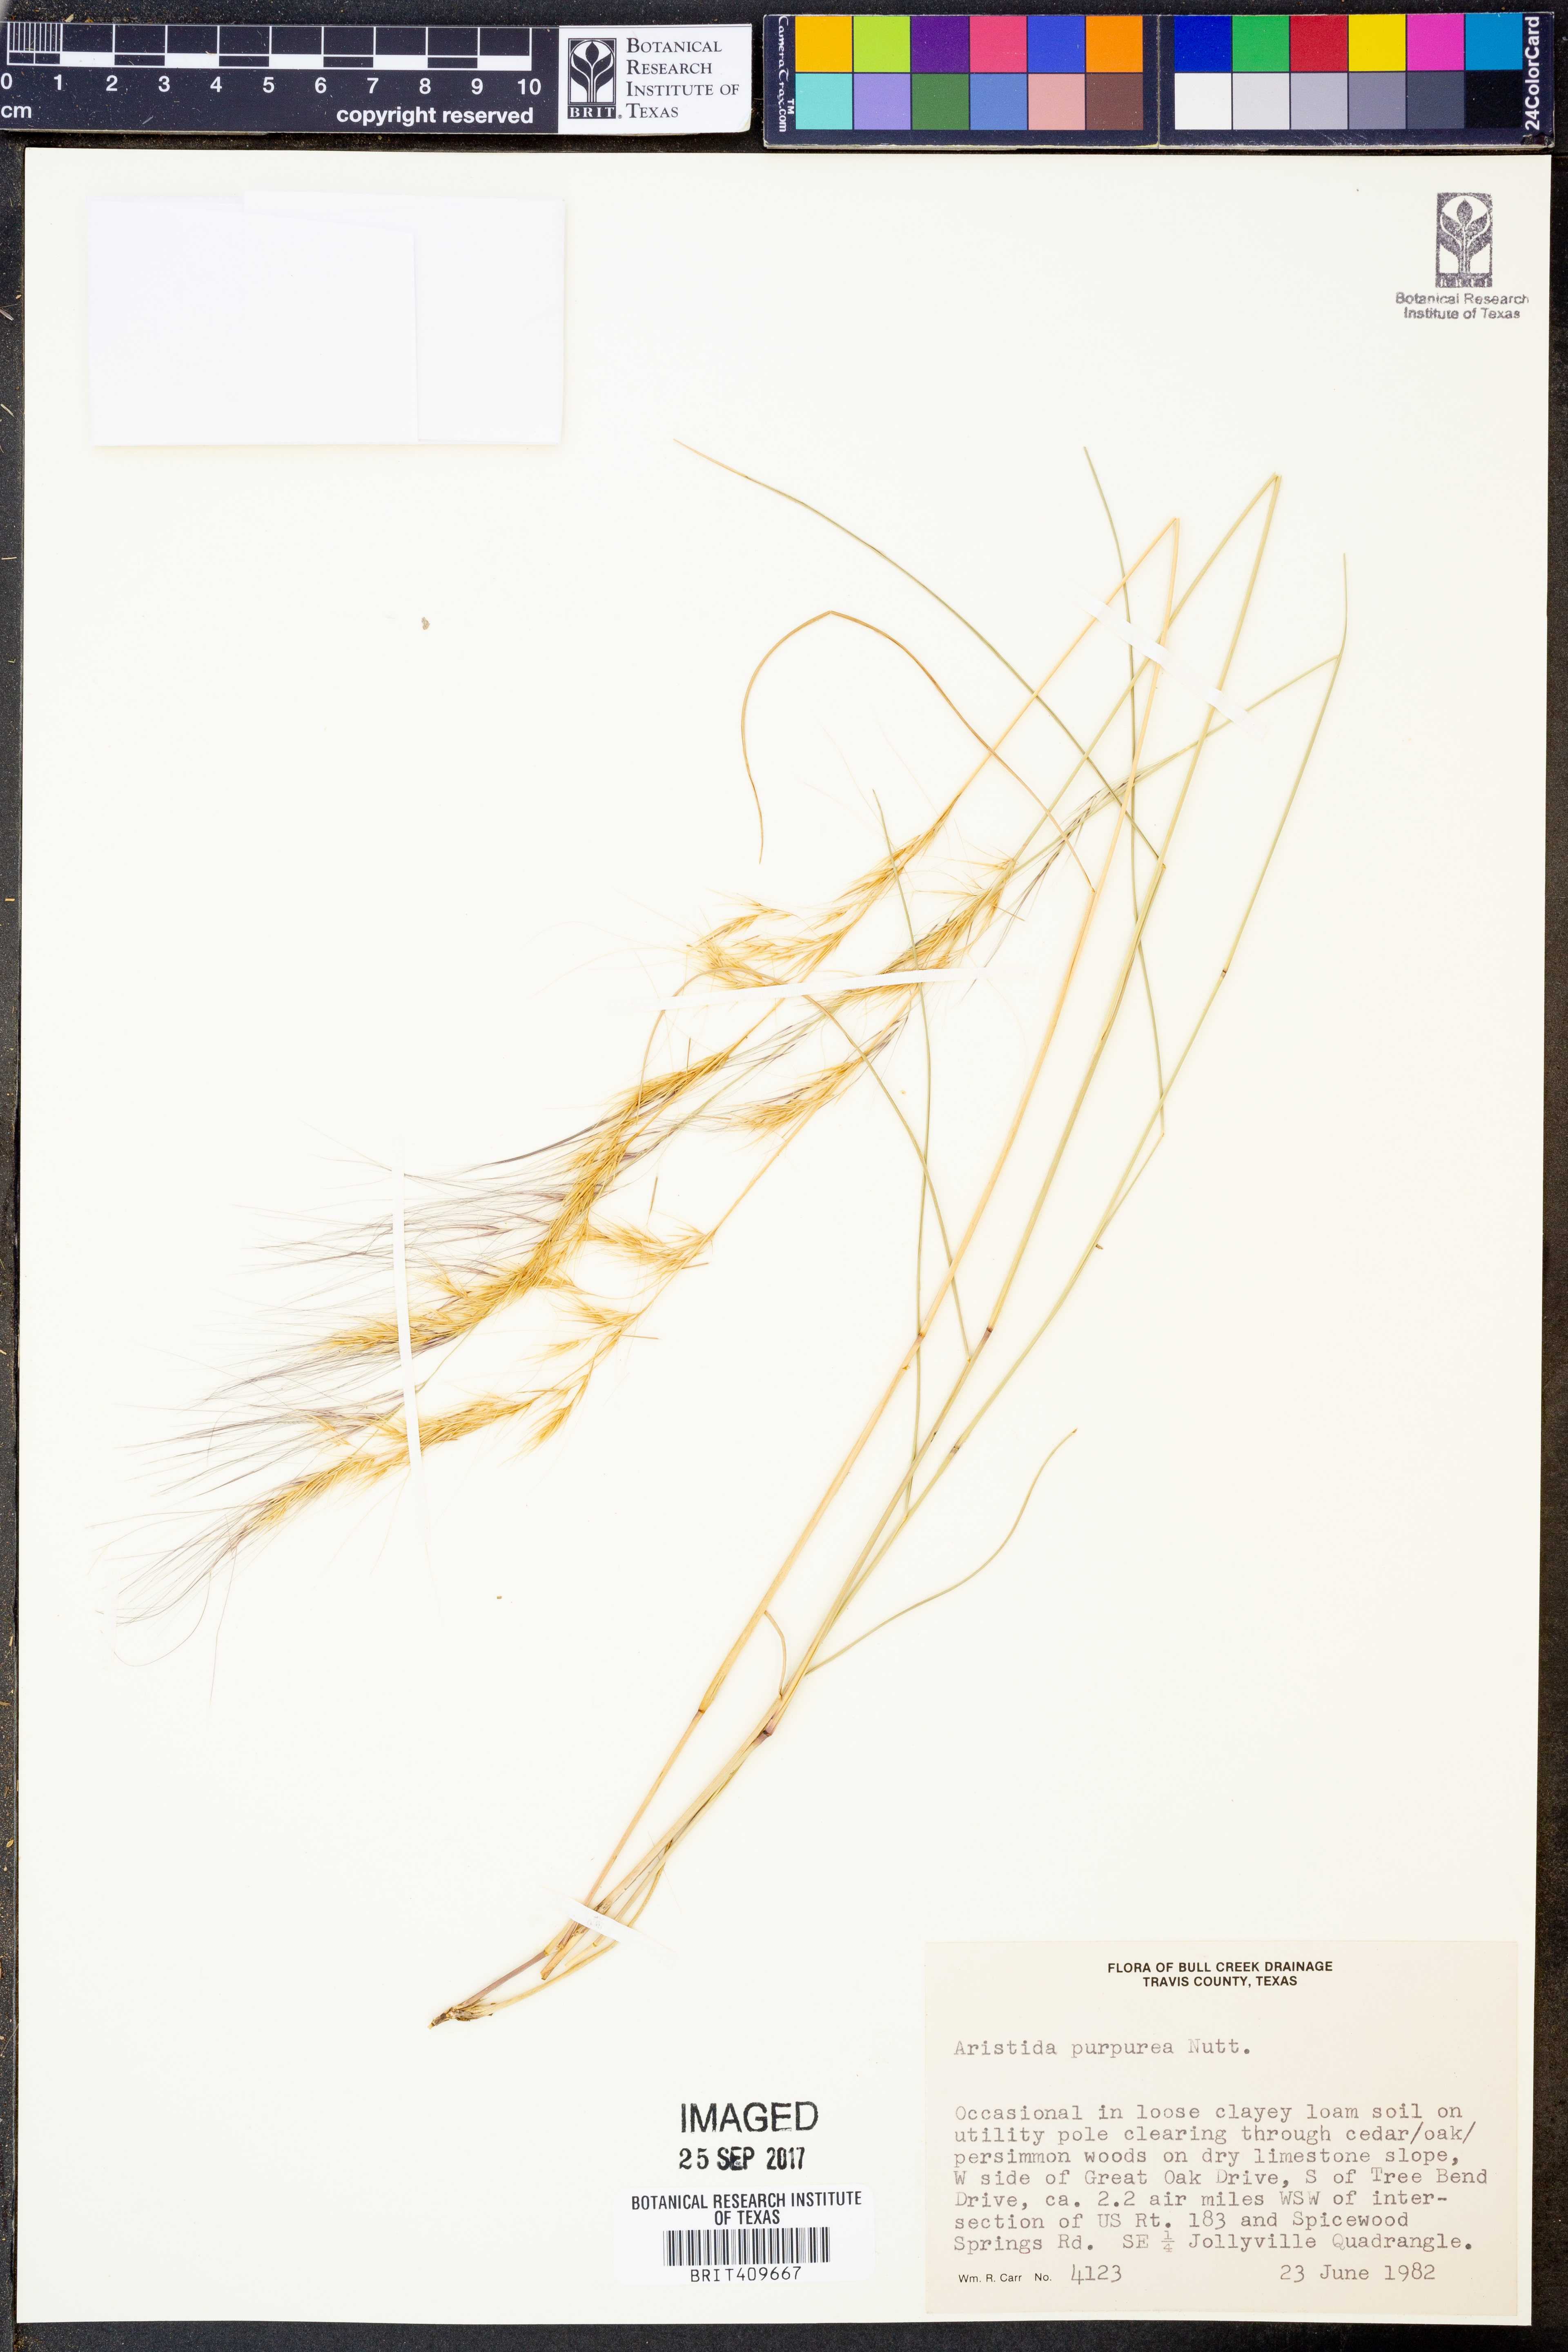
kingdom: Plantae
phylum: Tracheophyta
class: Liliopsida
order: Poales
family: Poaceae
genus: Aristida
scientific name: Aristida purpurea
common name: Purple threeawn
